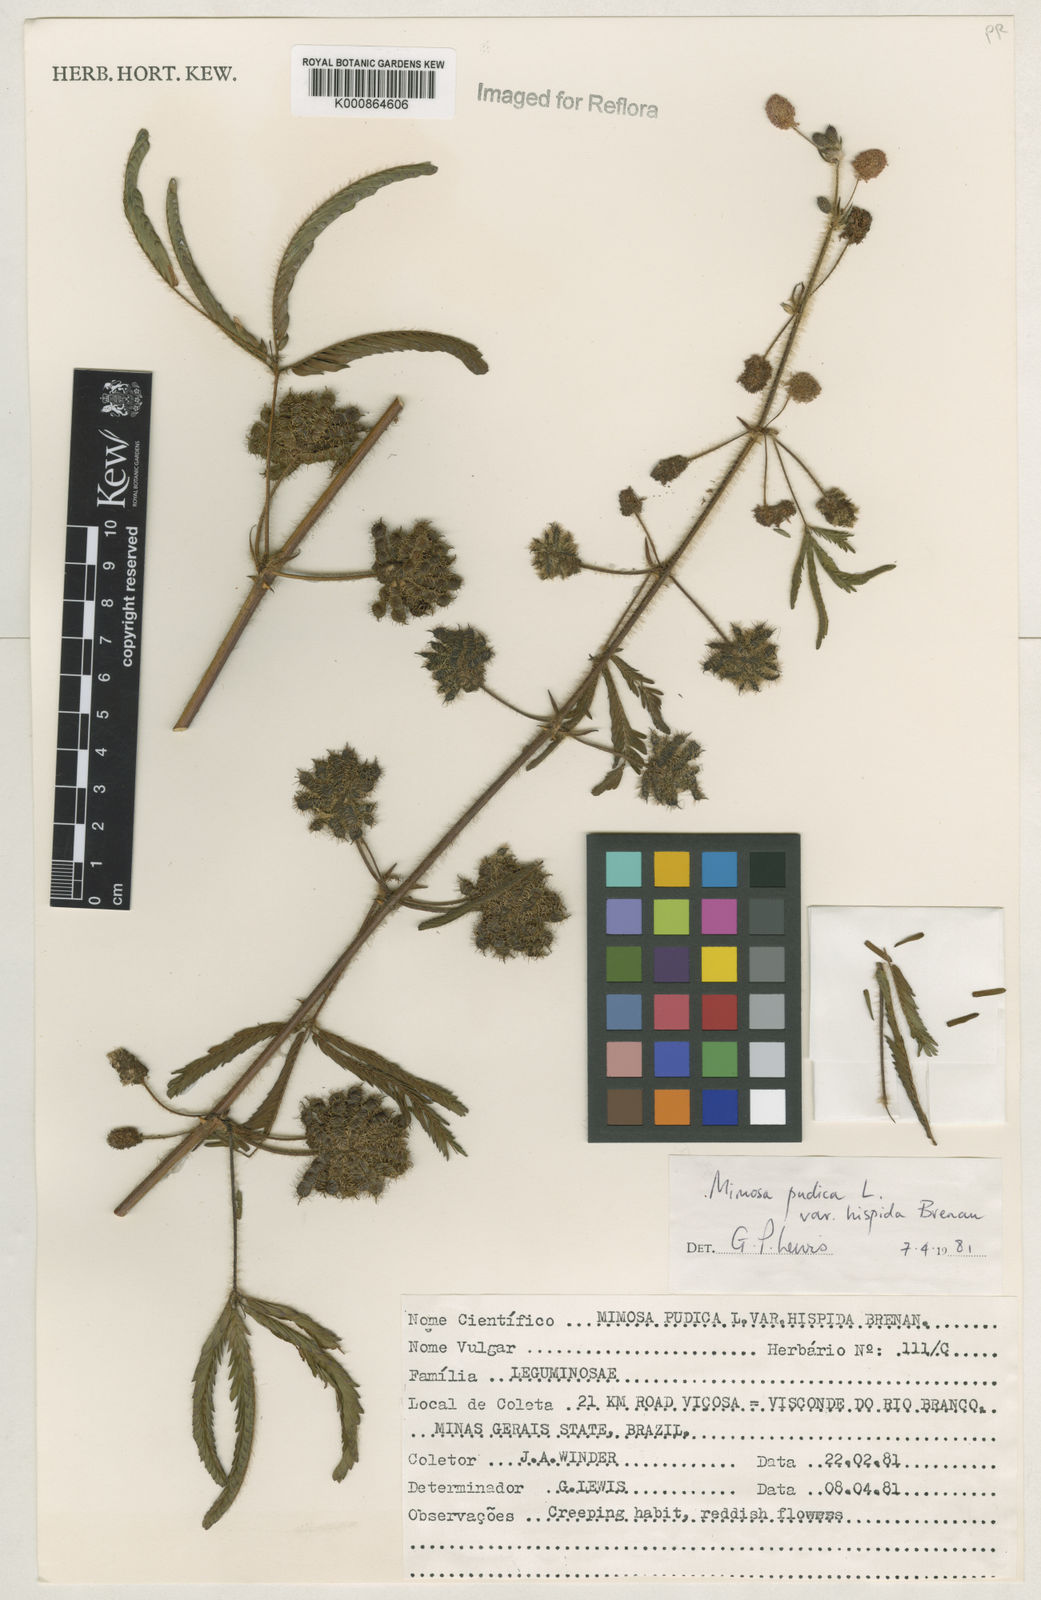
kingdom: Plantae
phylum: Tracheophyta
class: Magnoliopsida
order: Fabales
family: Fabaceae
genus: Mimosa
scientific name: Mimosa pudica
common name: Sensitive plant
